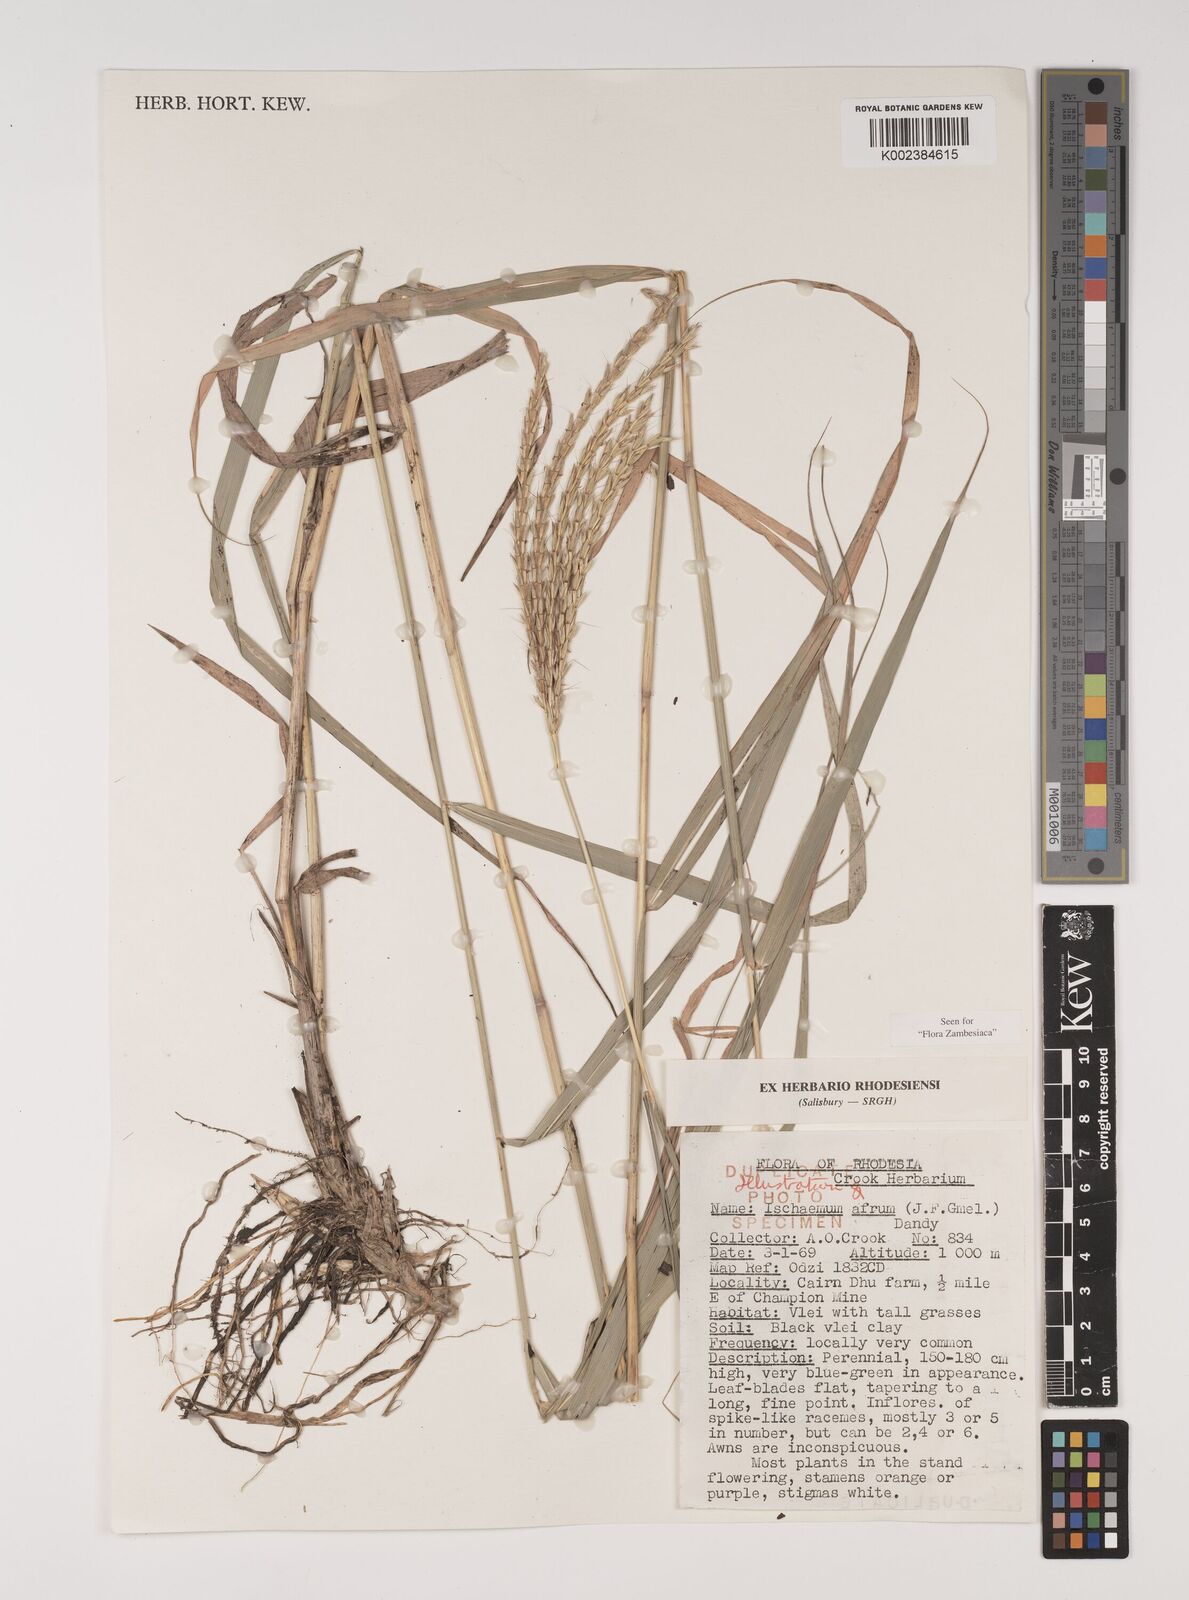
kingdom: Plantae
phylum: Tracheophyta
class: Liliopsida
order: Poales
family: Poaceae
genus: Ischaemum
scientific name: Ischaemum afrum
